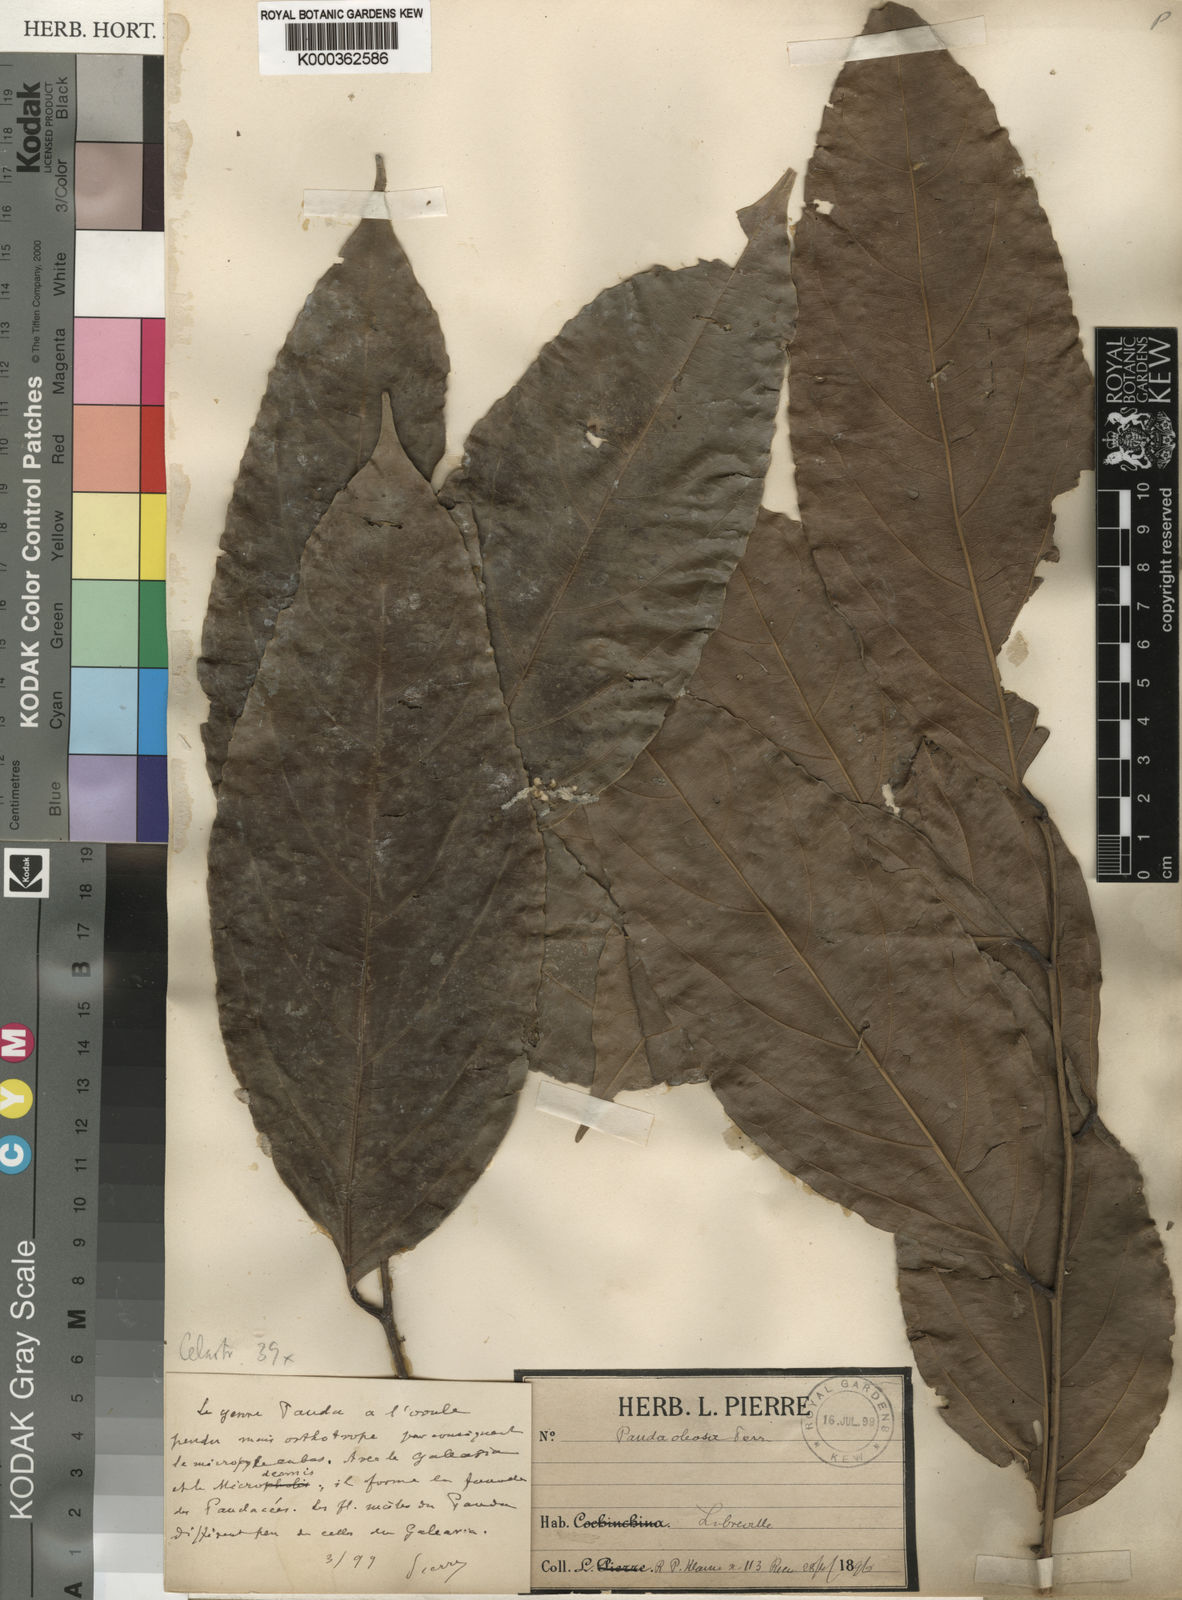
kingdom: Plantae
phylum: Tracheophyta
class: Magnoliopsida
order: Malpighiales
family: Pandaceae
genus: Panda
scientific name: Panda oleosa
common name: Panda
